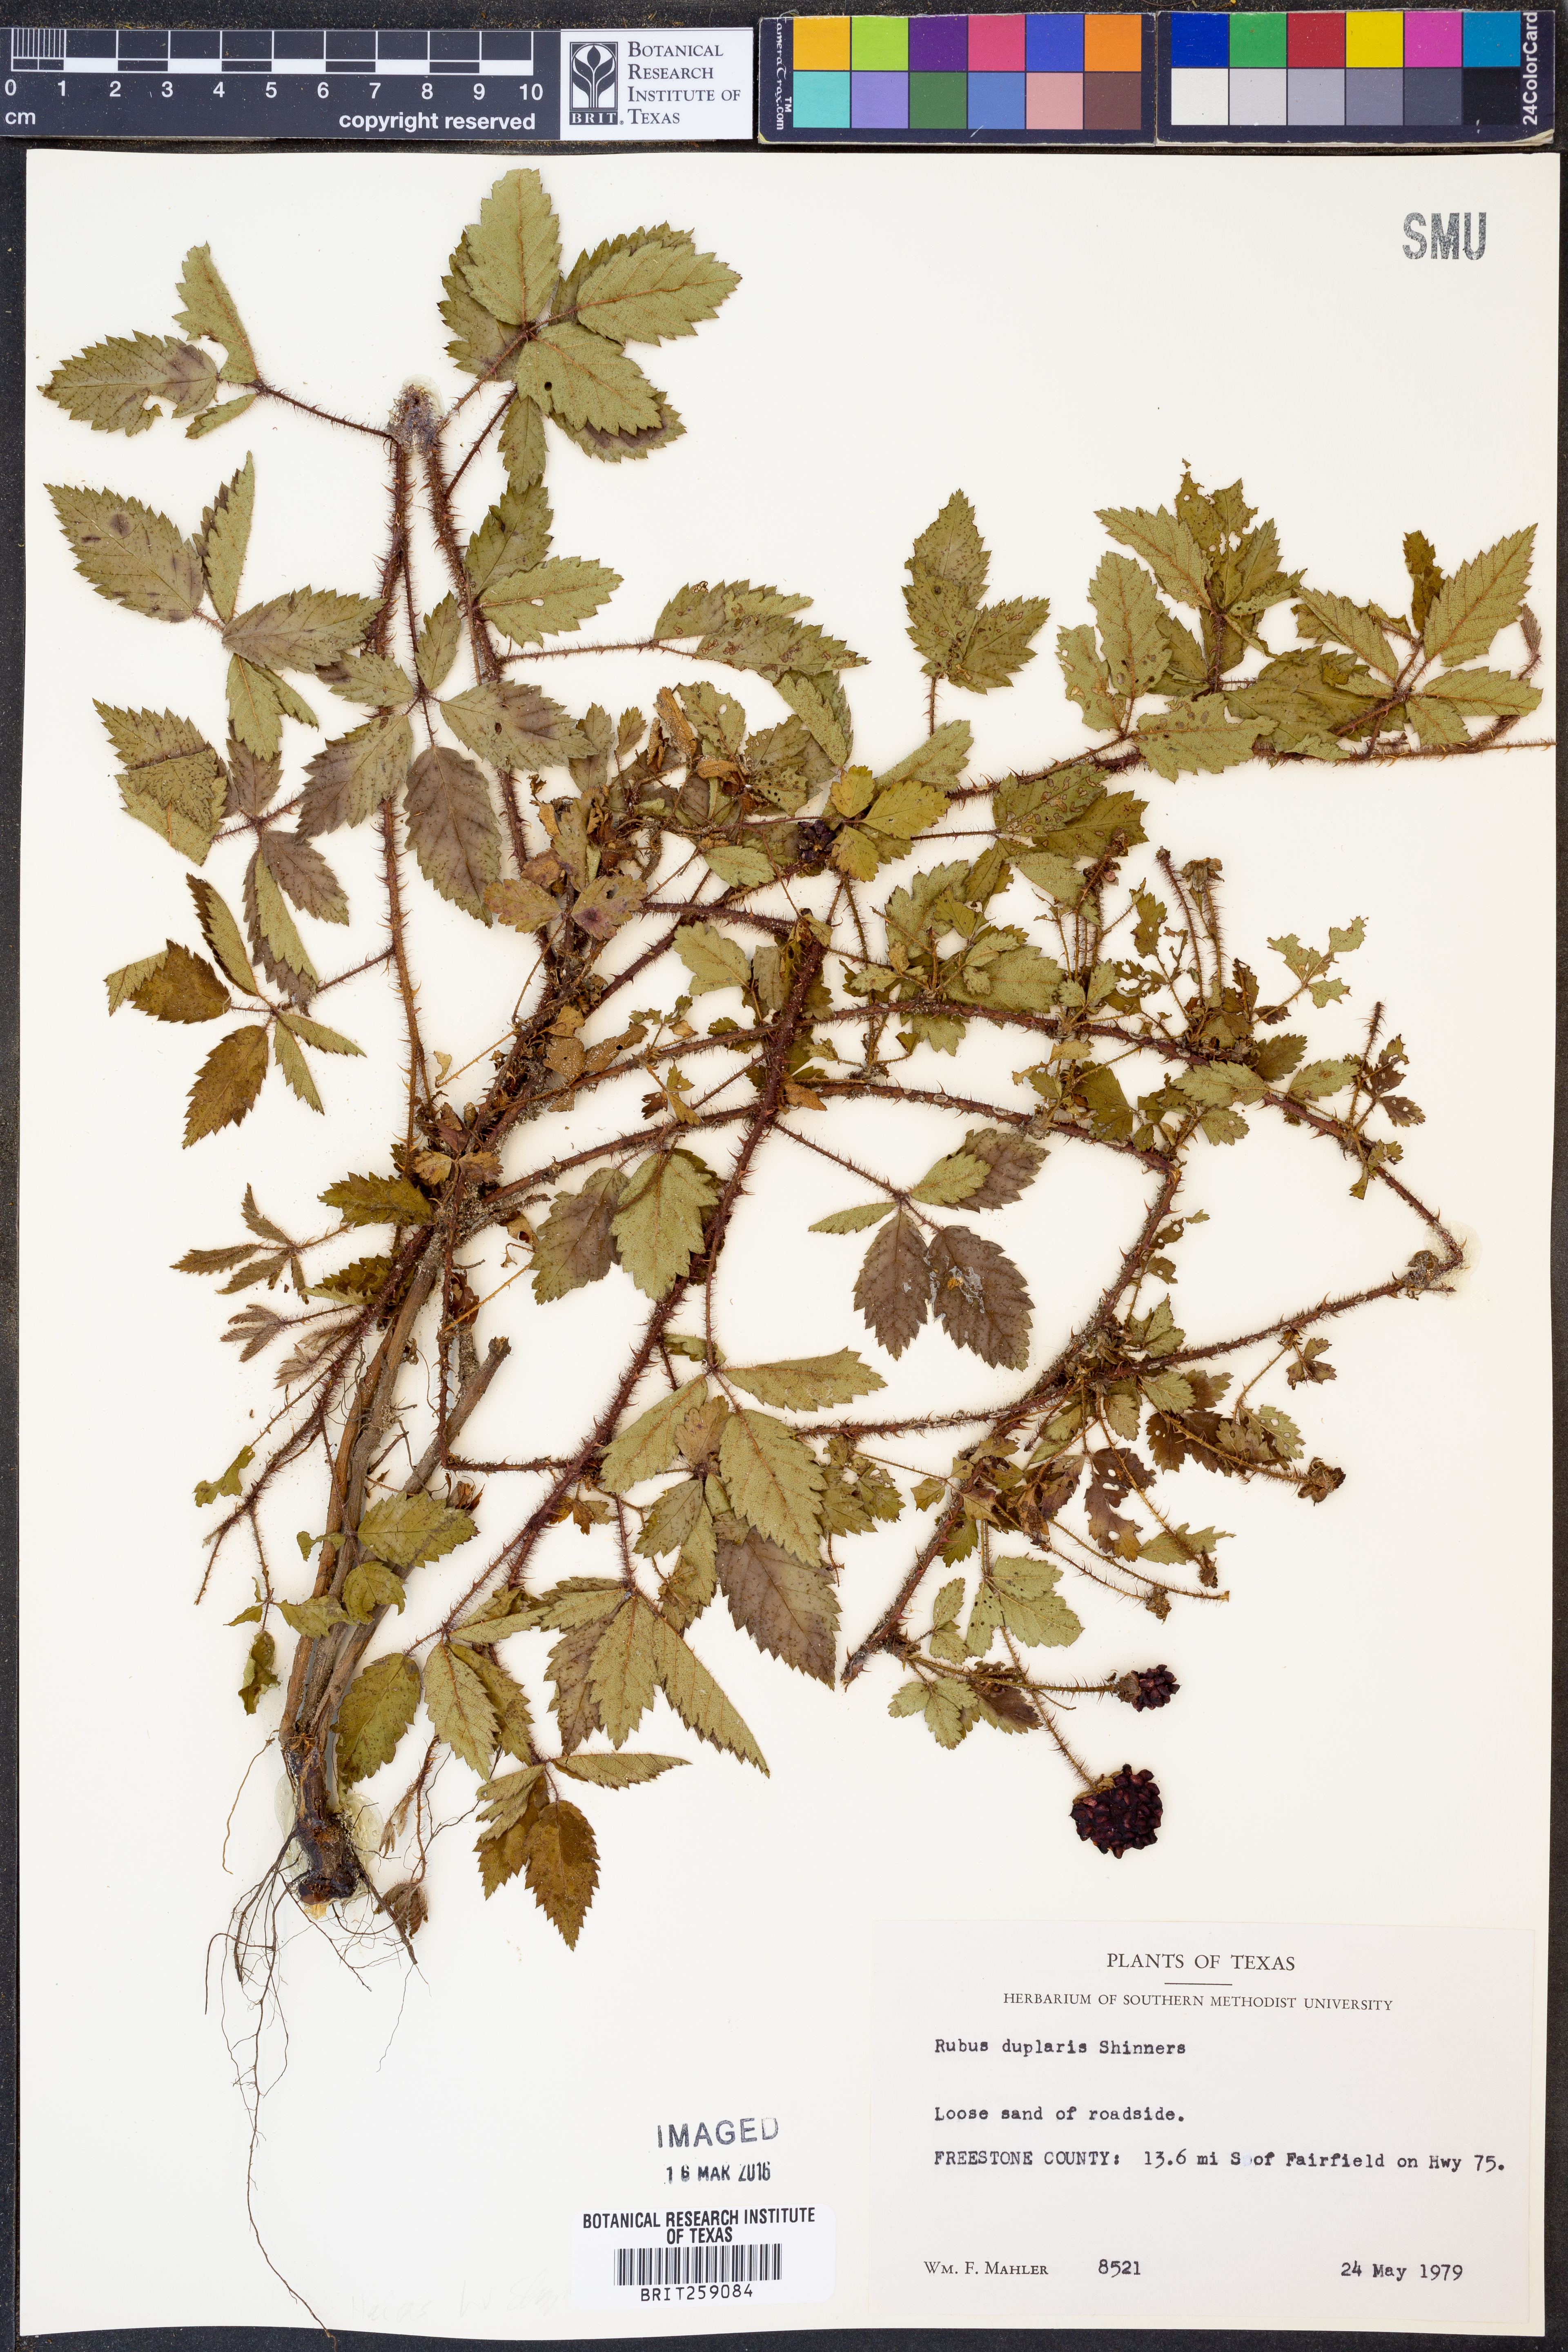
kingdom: Plantae
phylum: Tracheophyta
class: Magnoliopsida
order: Rosales
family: Rosaceae
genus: Rubus
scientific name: Rubus riograndis
